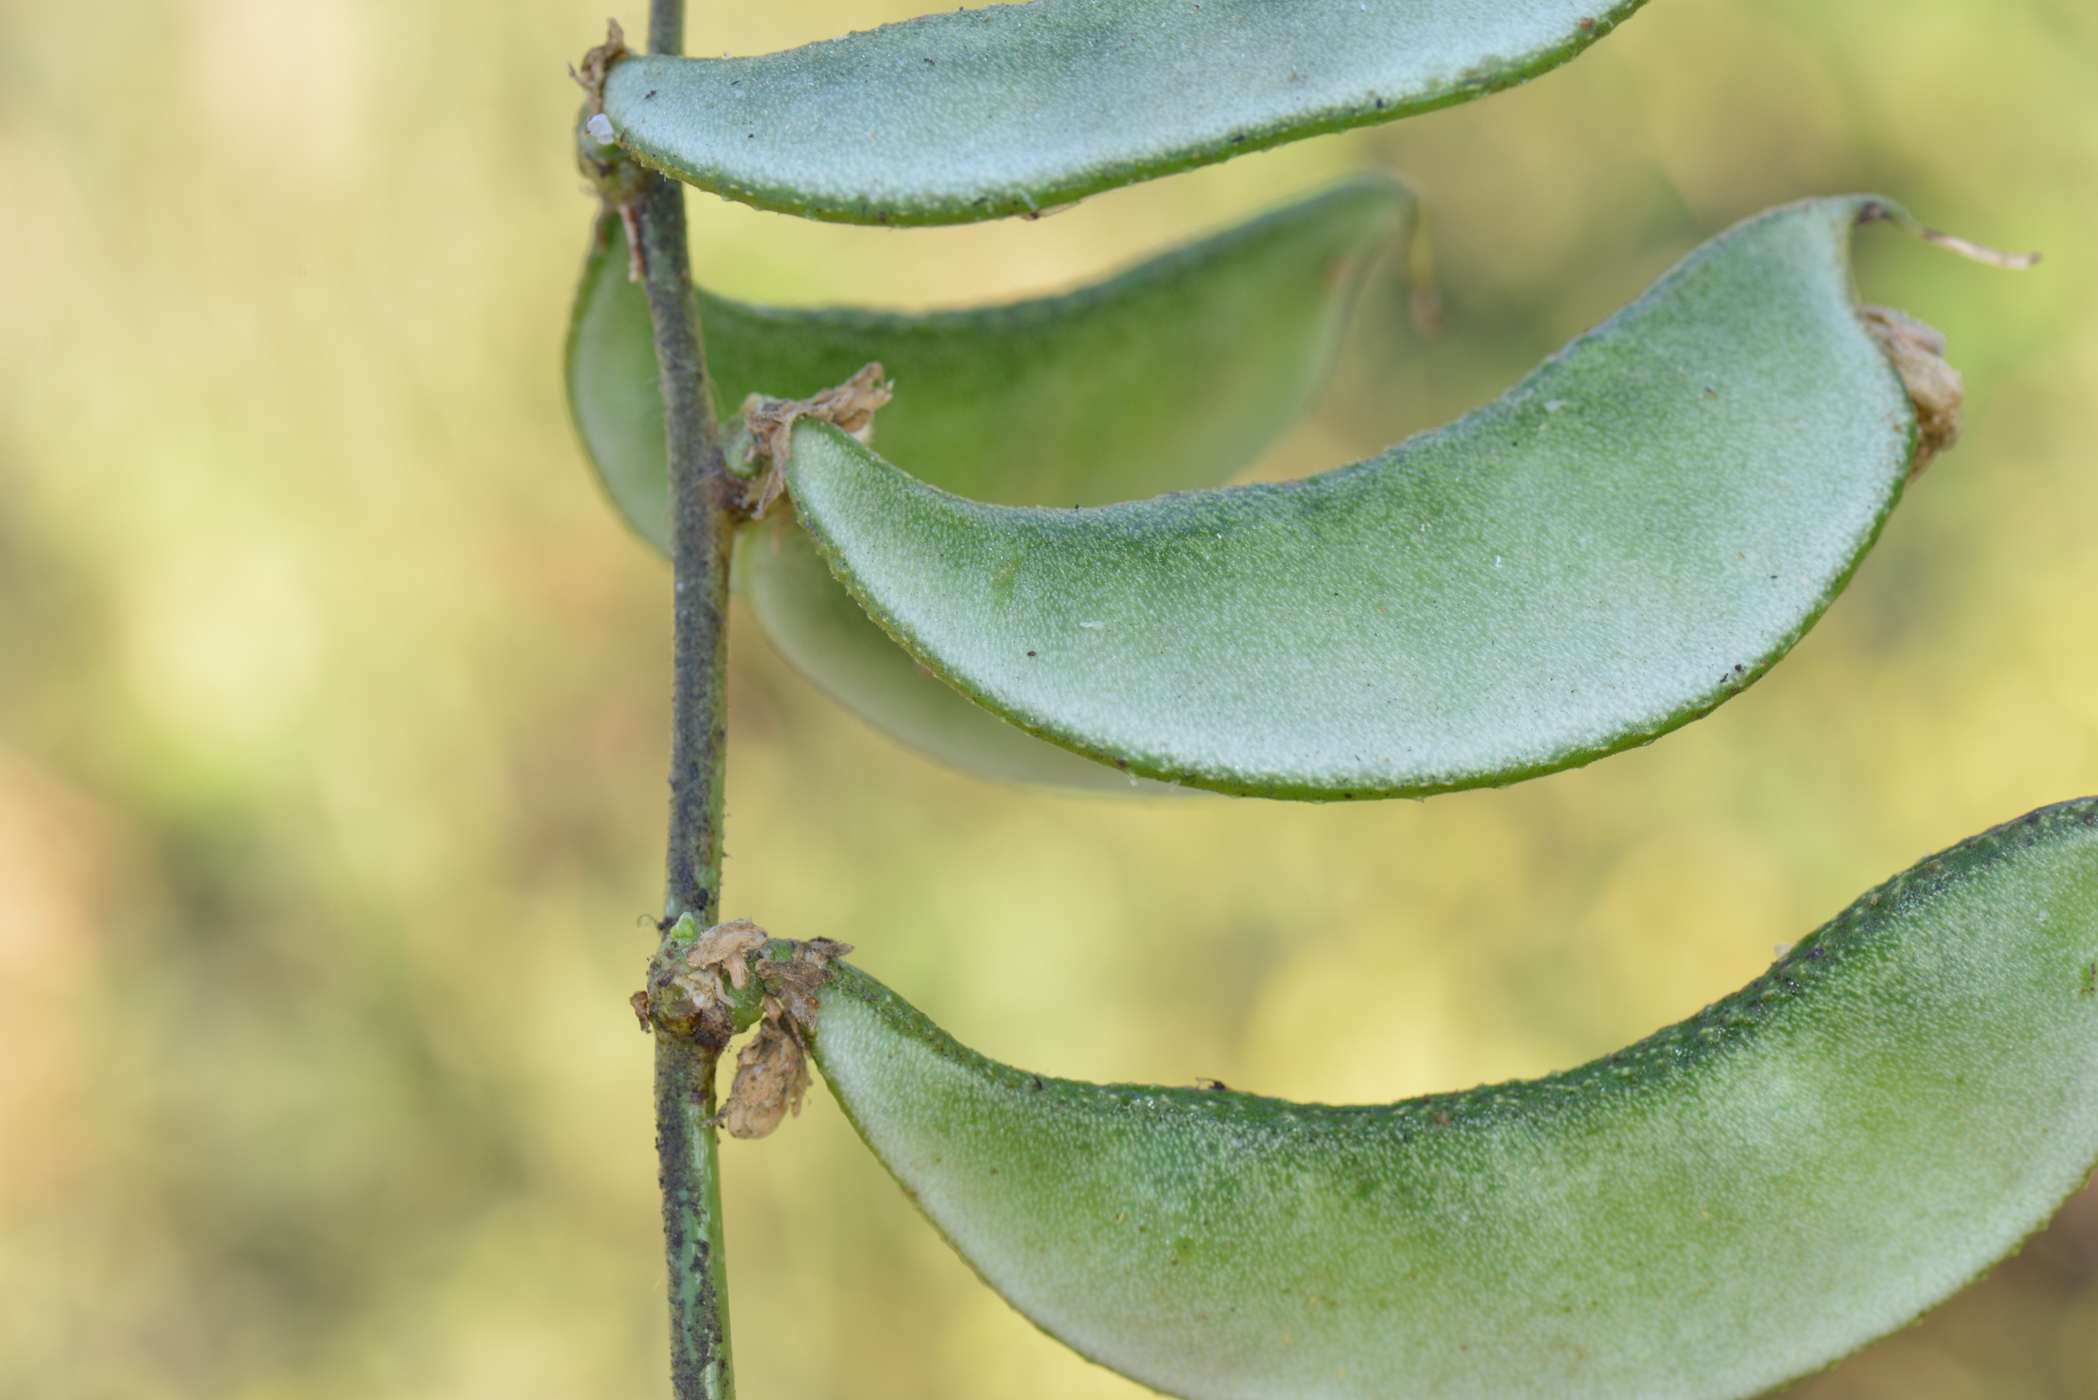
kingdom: Plantae
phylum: Tracheophyta
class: Magnoliopsida
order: Fabales
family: Fabaceae
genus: Lablab
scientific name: Lablab purpureus
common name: Lablab-bean
